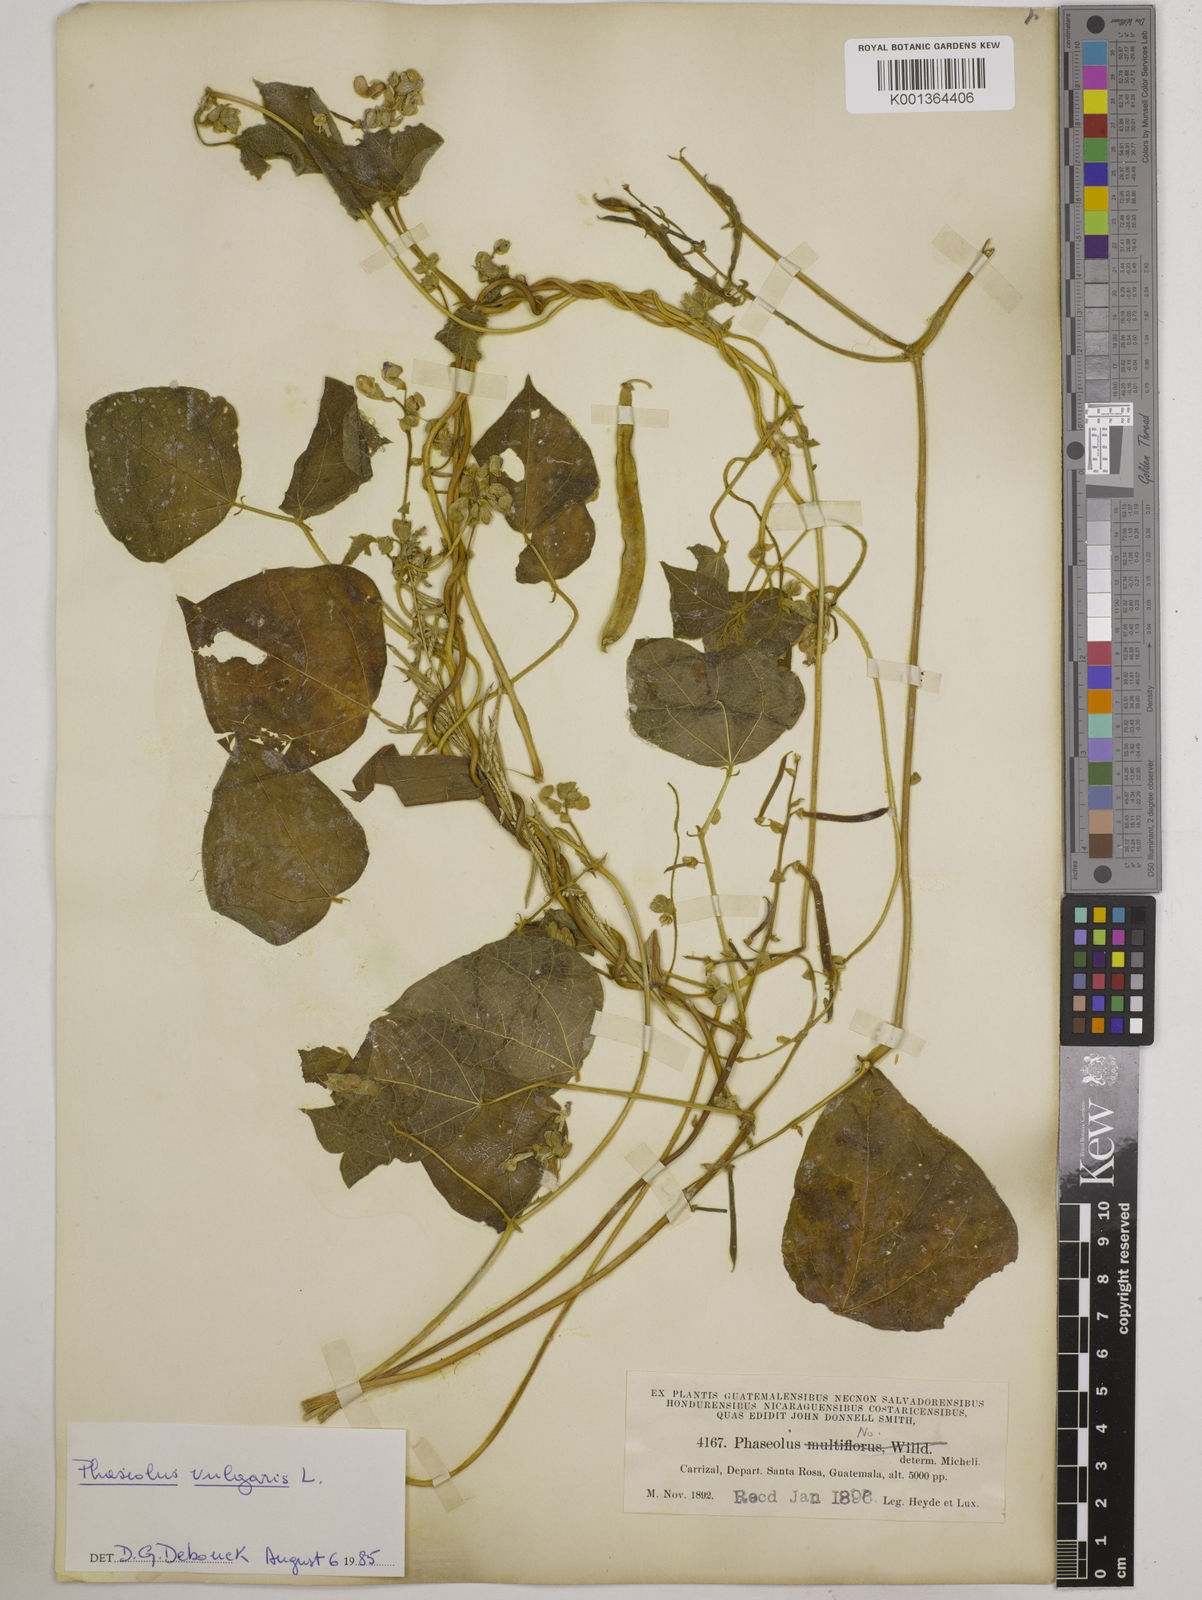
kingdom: Plantae
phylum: Tracheophyta
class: Magnoliopsida
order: Fabales
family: Fabaceae
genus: Phaseolus
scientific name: Phaseolus vulgaris
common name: Bean
